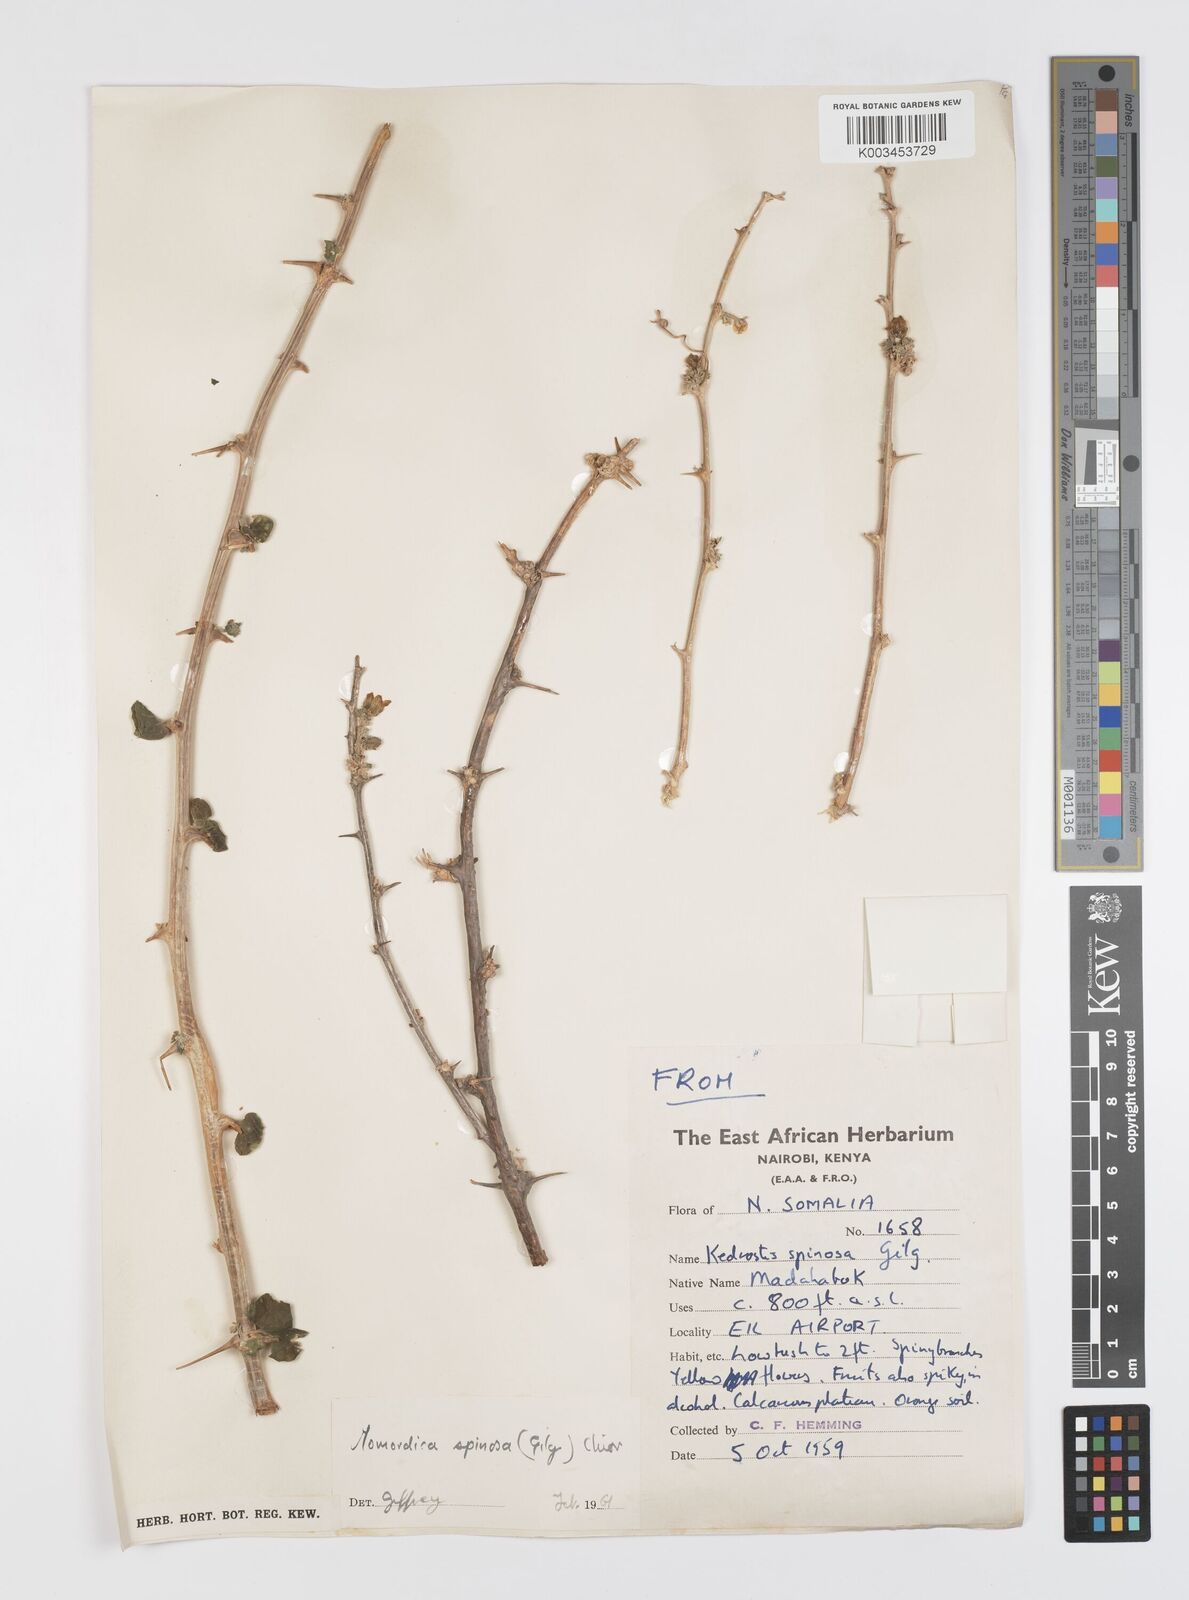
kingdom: Plantae
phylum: Tracheophyta
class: Magnoliopsida
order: Cucurbitales
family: Cucurbitaceae
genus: Momordica
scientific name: Momordica spinosa
